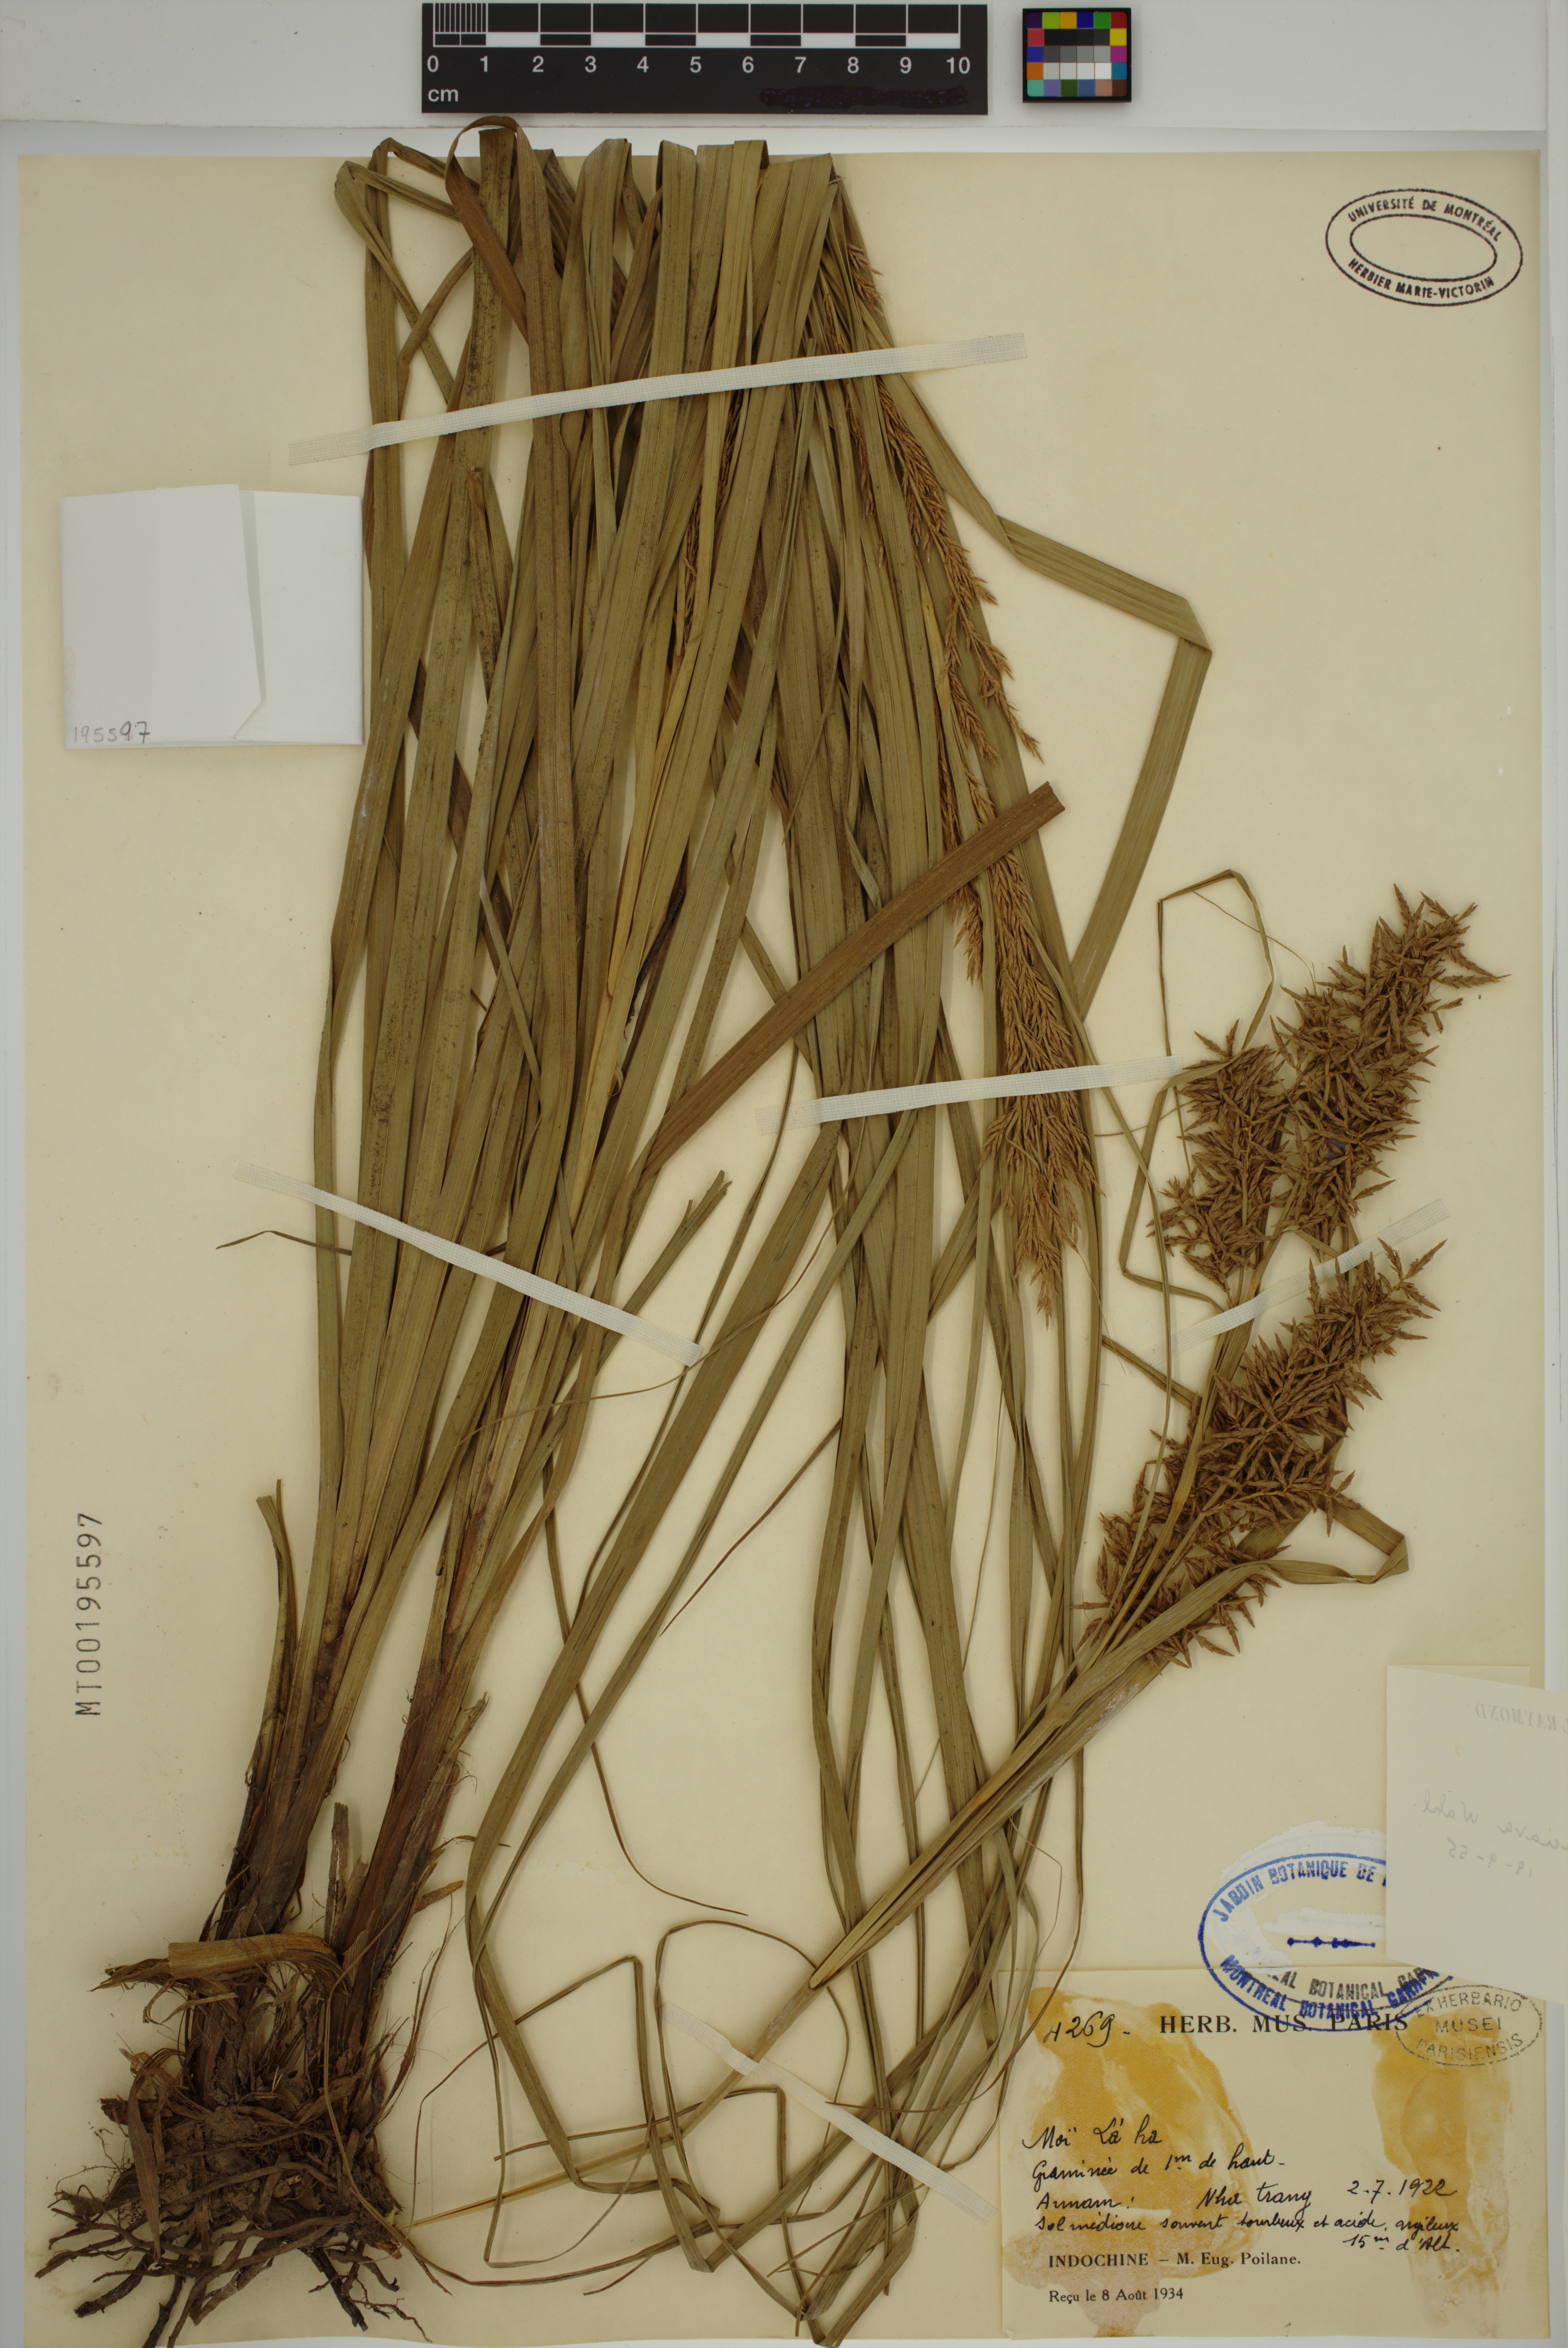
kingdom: Plantae
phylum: Tracheophyta
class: Liliopsida
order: Poales
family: Cyperaceae
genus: Carex
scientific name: Carex cruciata
